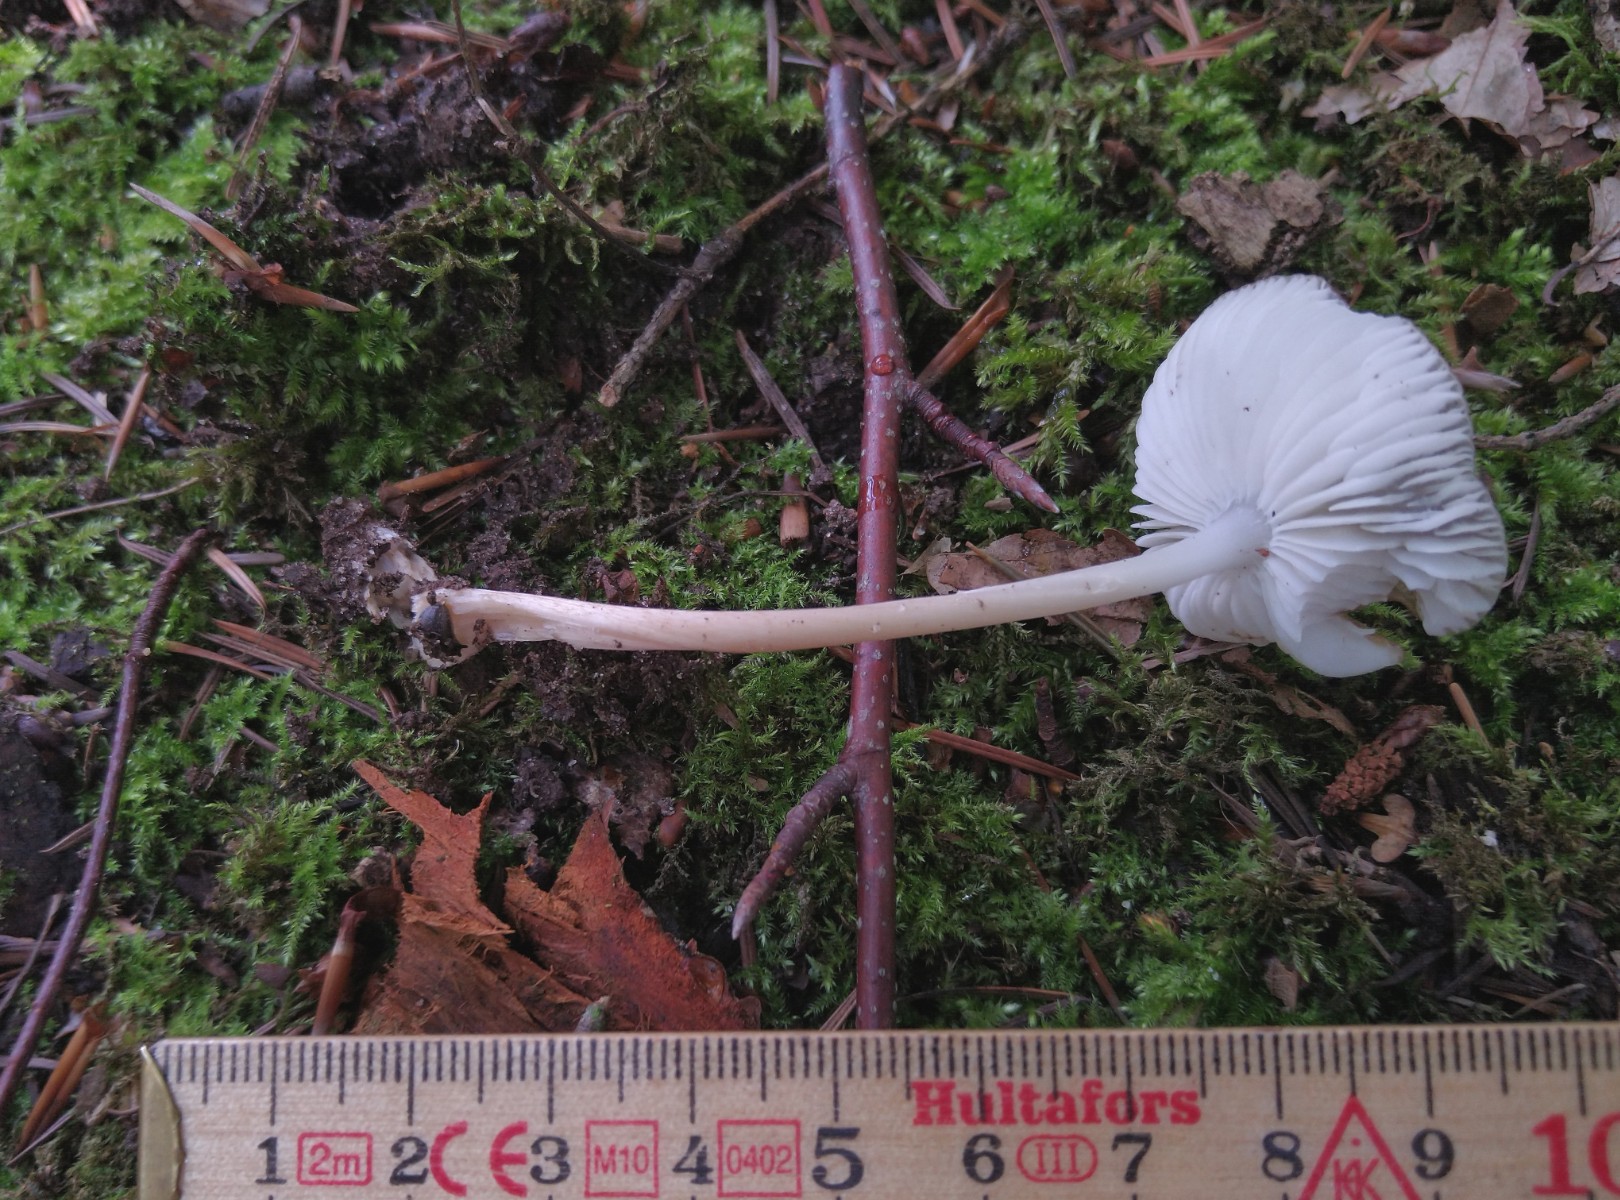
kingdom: Fungi
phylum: Basidiomycota
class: Agaricomycetes
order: Agaricales
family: Physalacriaceae
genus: Hymenopellis
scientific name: Hymenopellis radicata
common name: almindelig pælerodshat
